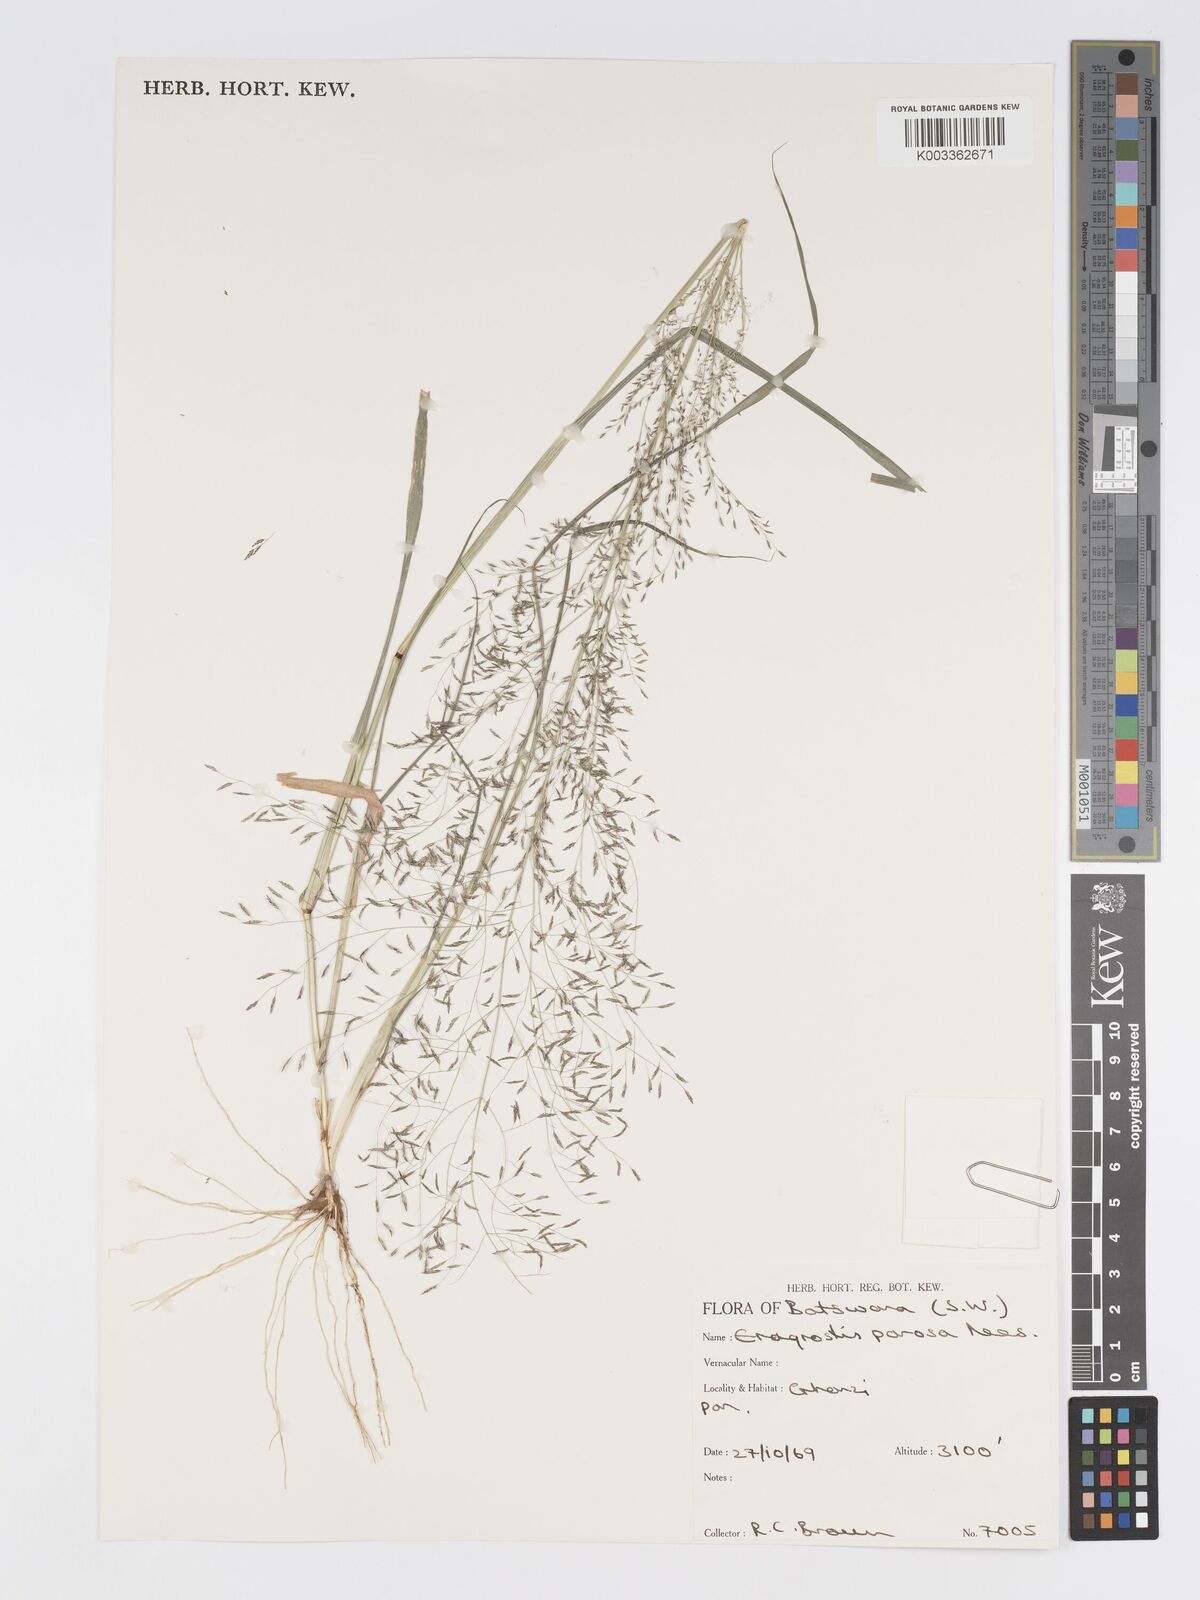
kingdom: Plantae
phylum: Tracheophyta
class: Liliopsida
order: Poales
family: Poaceae
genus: Eragrostis
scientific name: Eragrostis porosa
